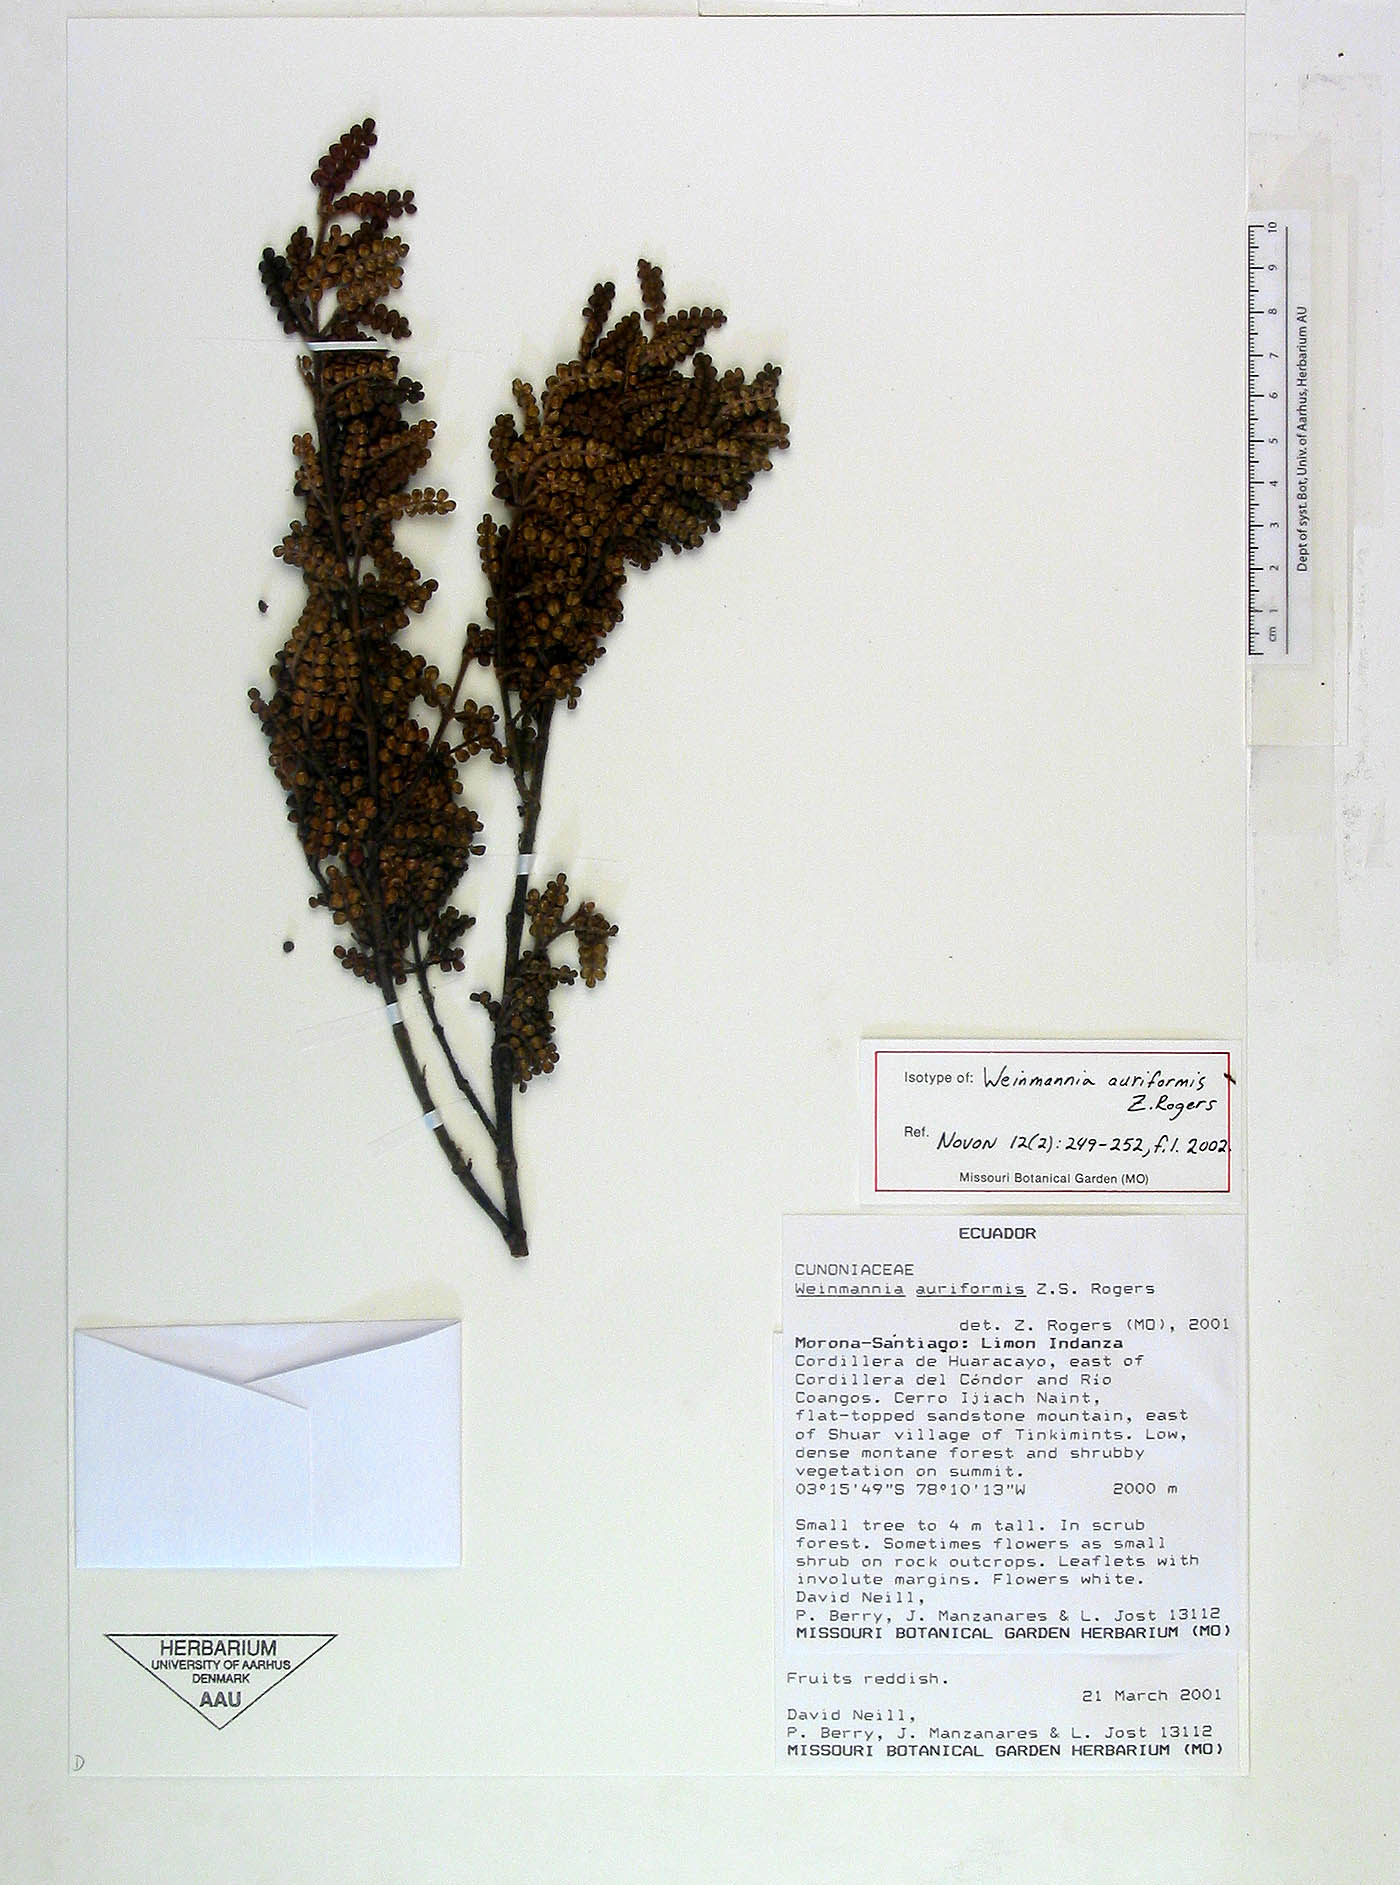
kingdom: Plantae
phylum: Tracheophyta
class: Magnoliopsida
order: Oxalidales
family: Cunoniaceae
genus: Weinmannia
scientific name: Weinmannia auriformis
